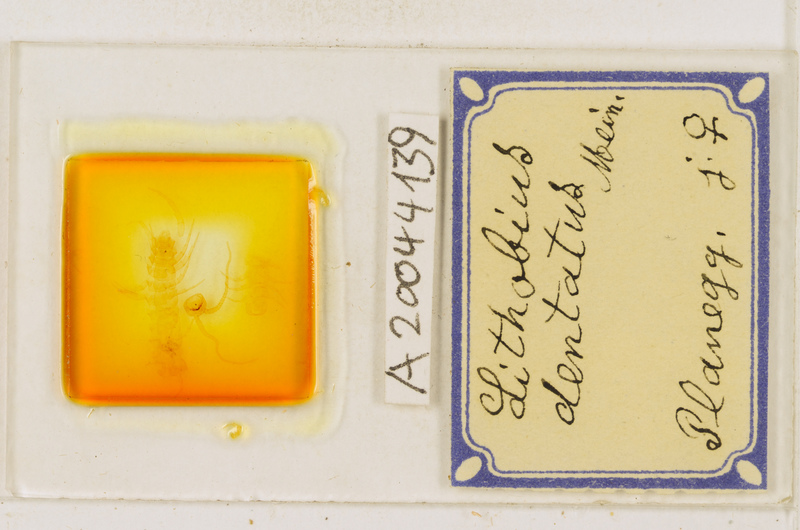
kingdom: Animalia
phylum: Arthropoda
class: Chilopoda
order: Lithobiomorpha
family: Lithobiidae
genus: Lithobius
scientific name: Lithobius dentatus
